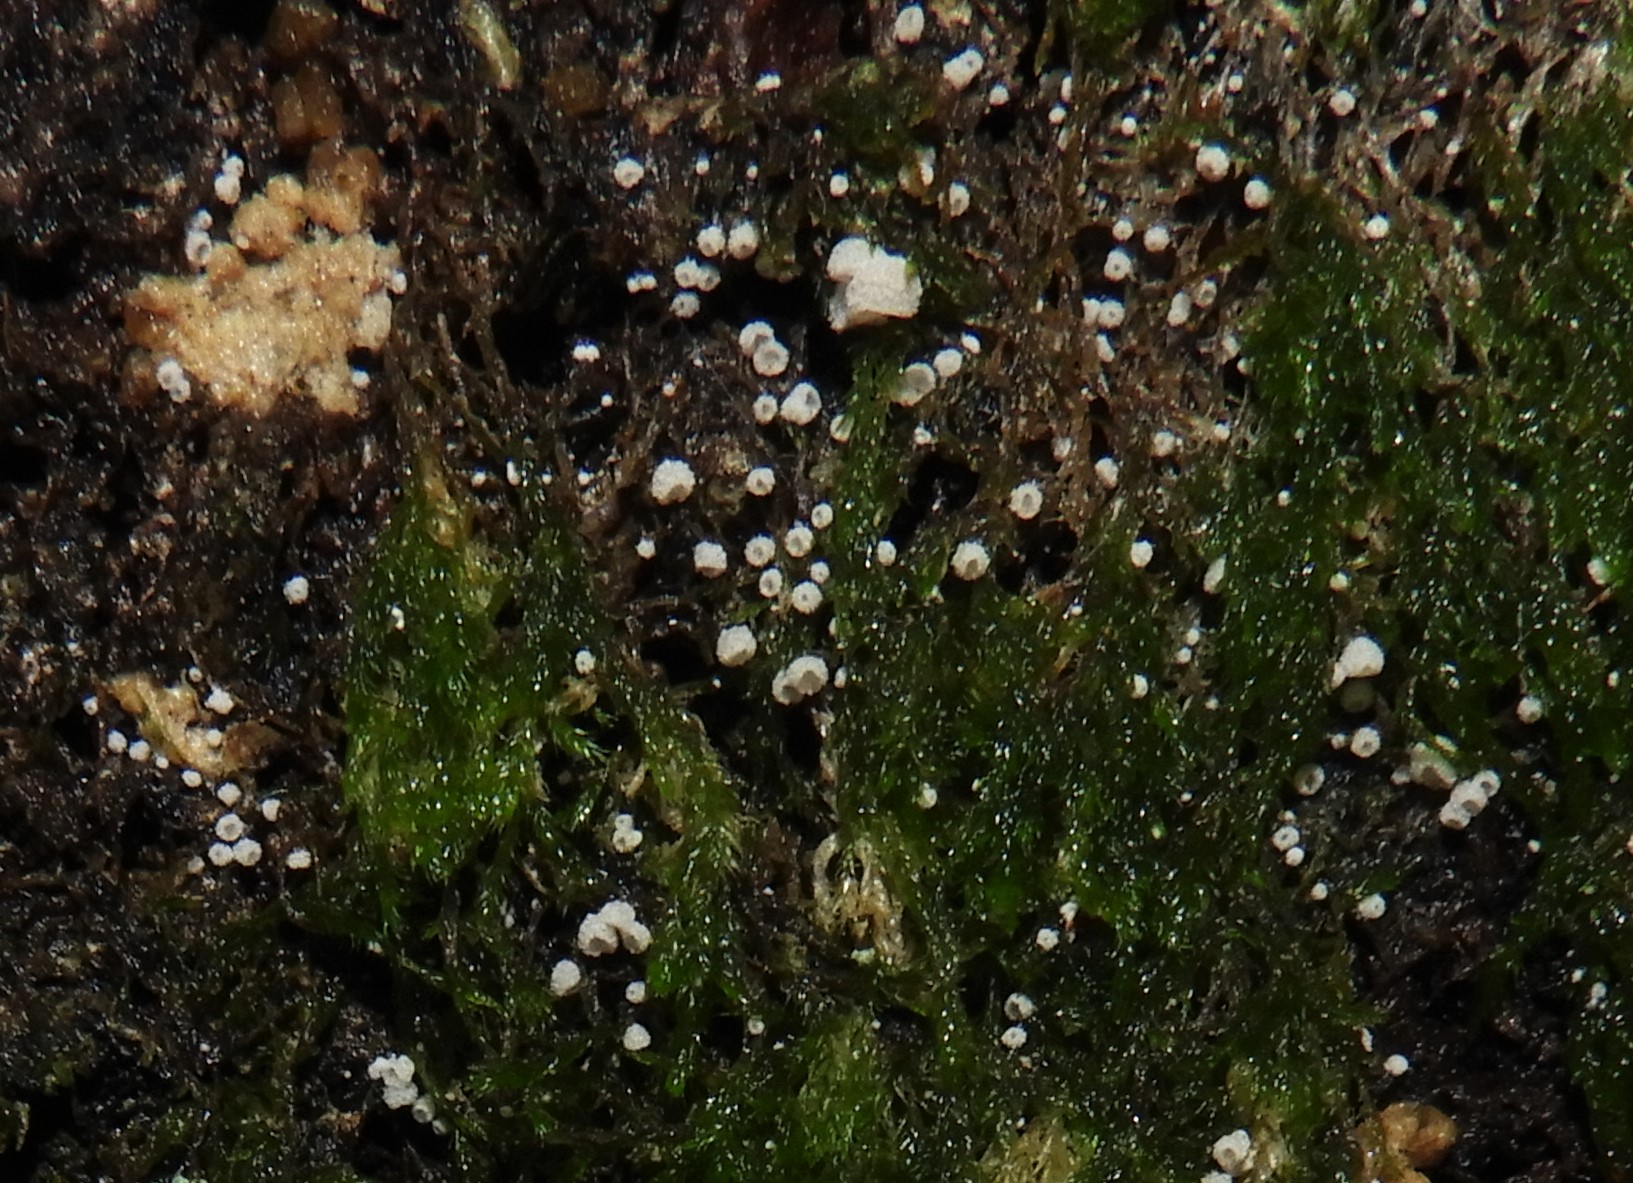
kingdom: Fungi
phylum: Basidiomycota
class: Agaricomycetes
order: Agaricales
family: Chromocyphellaceae
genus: Chromocyphella
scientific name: Chromocyphella muscicola
